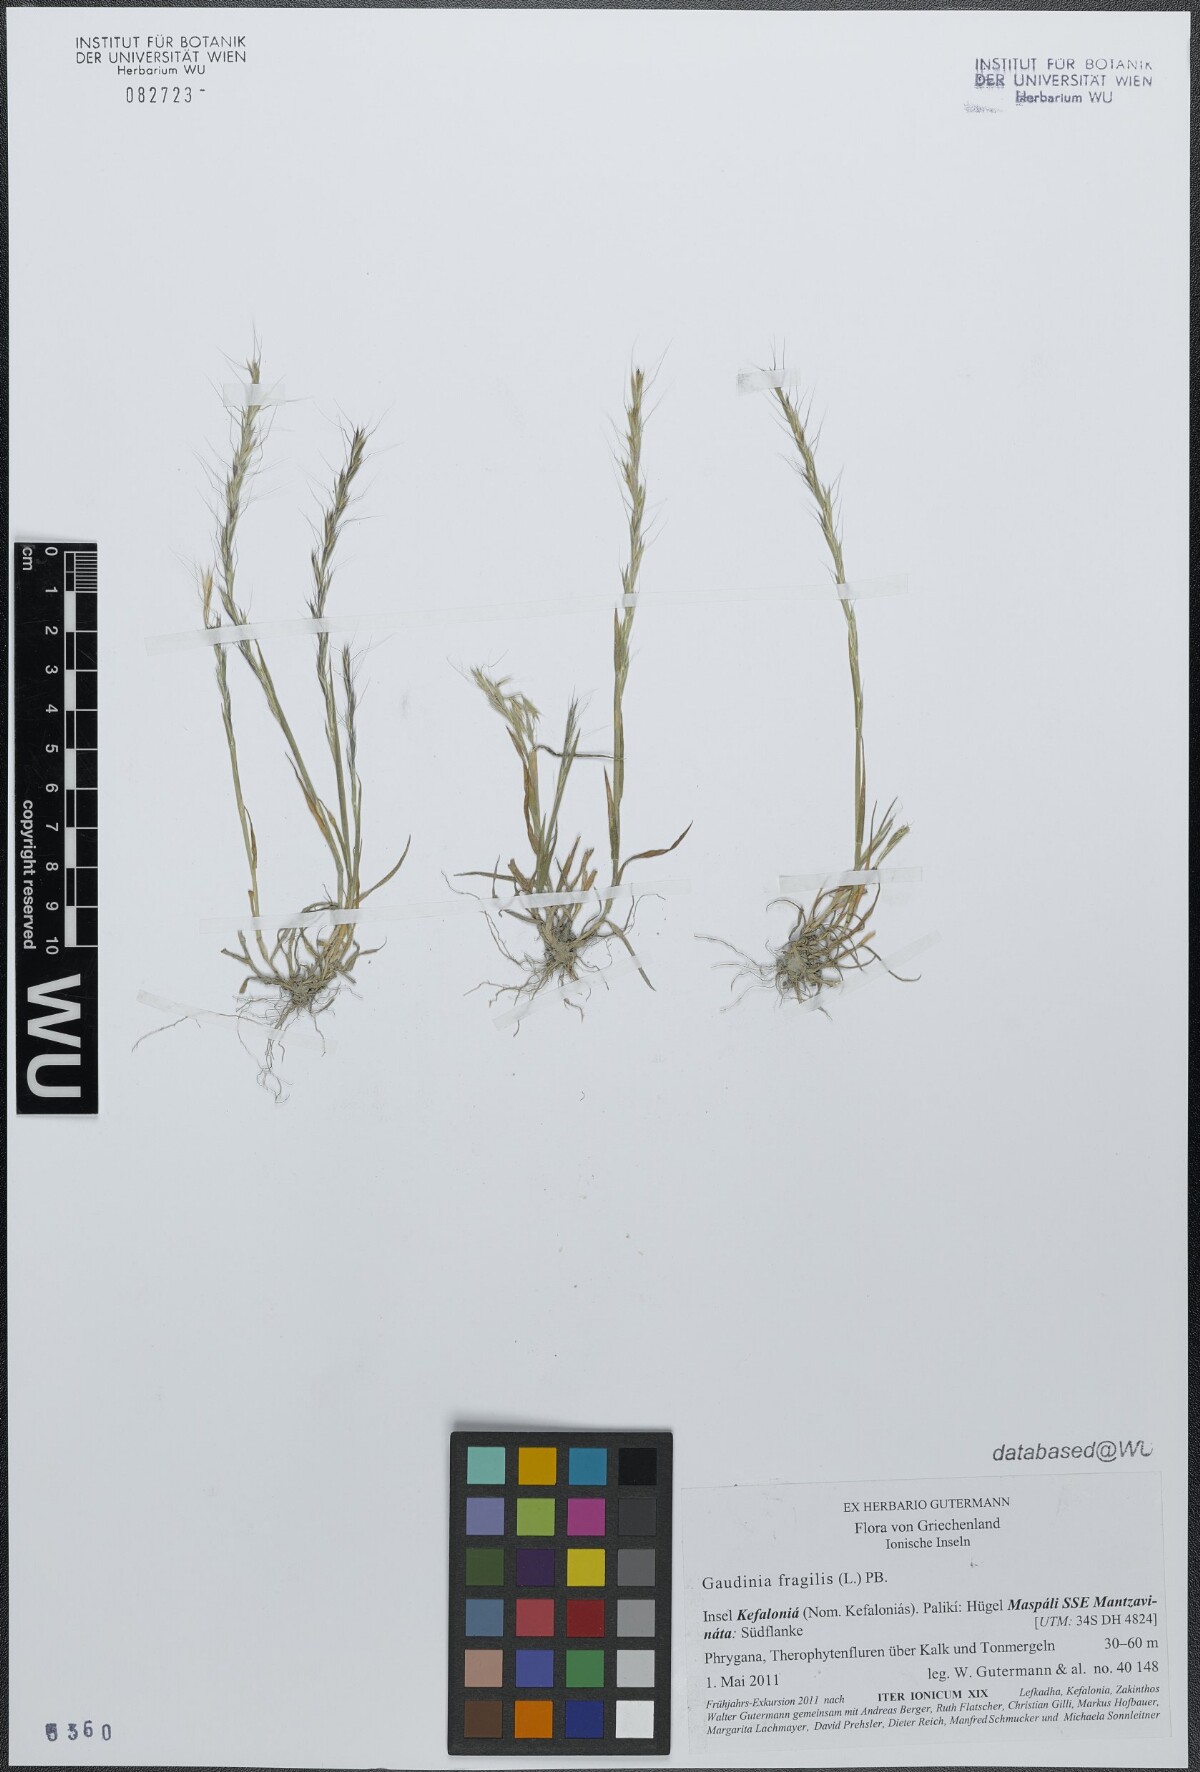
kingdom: Plantae
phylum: Tracheophyta
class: Liliopsida
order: Poales
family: Poaceae
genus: Gaudinia
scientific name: Gaudinia fragilis
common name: French oat-grass
